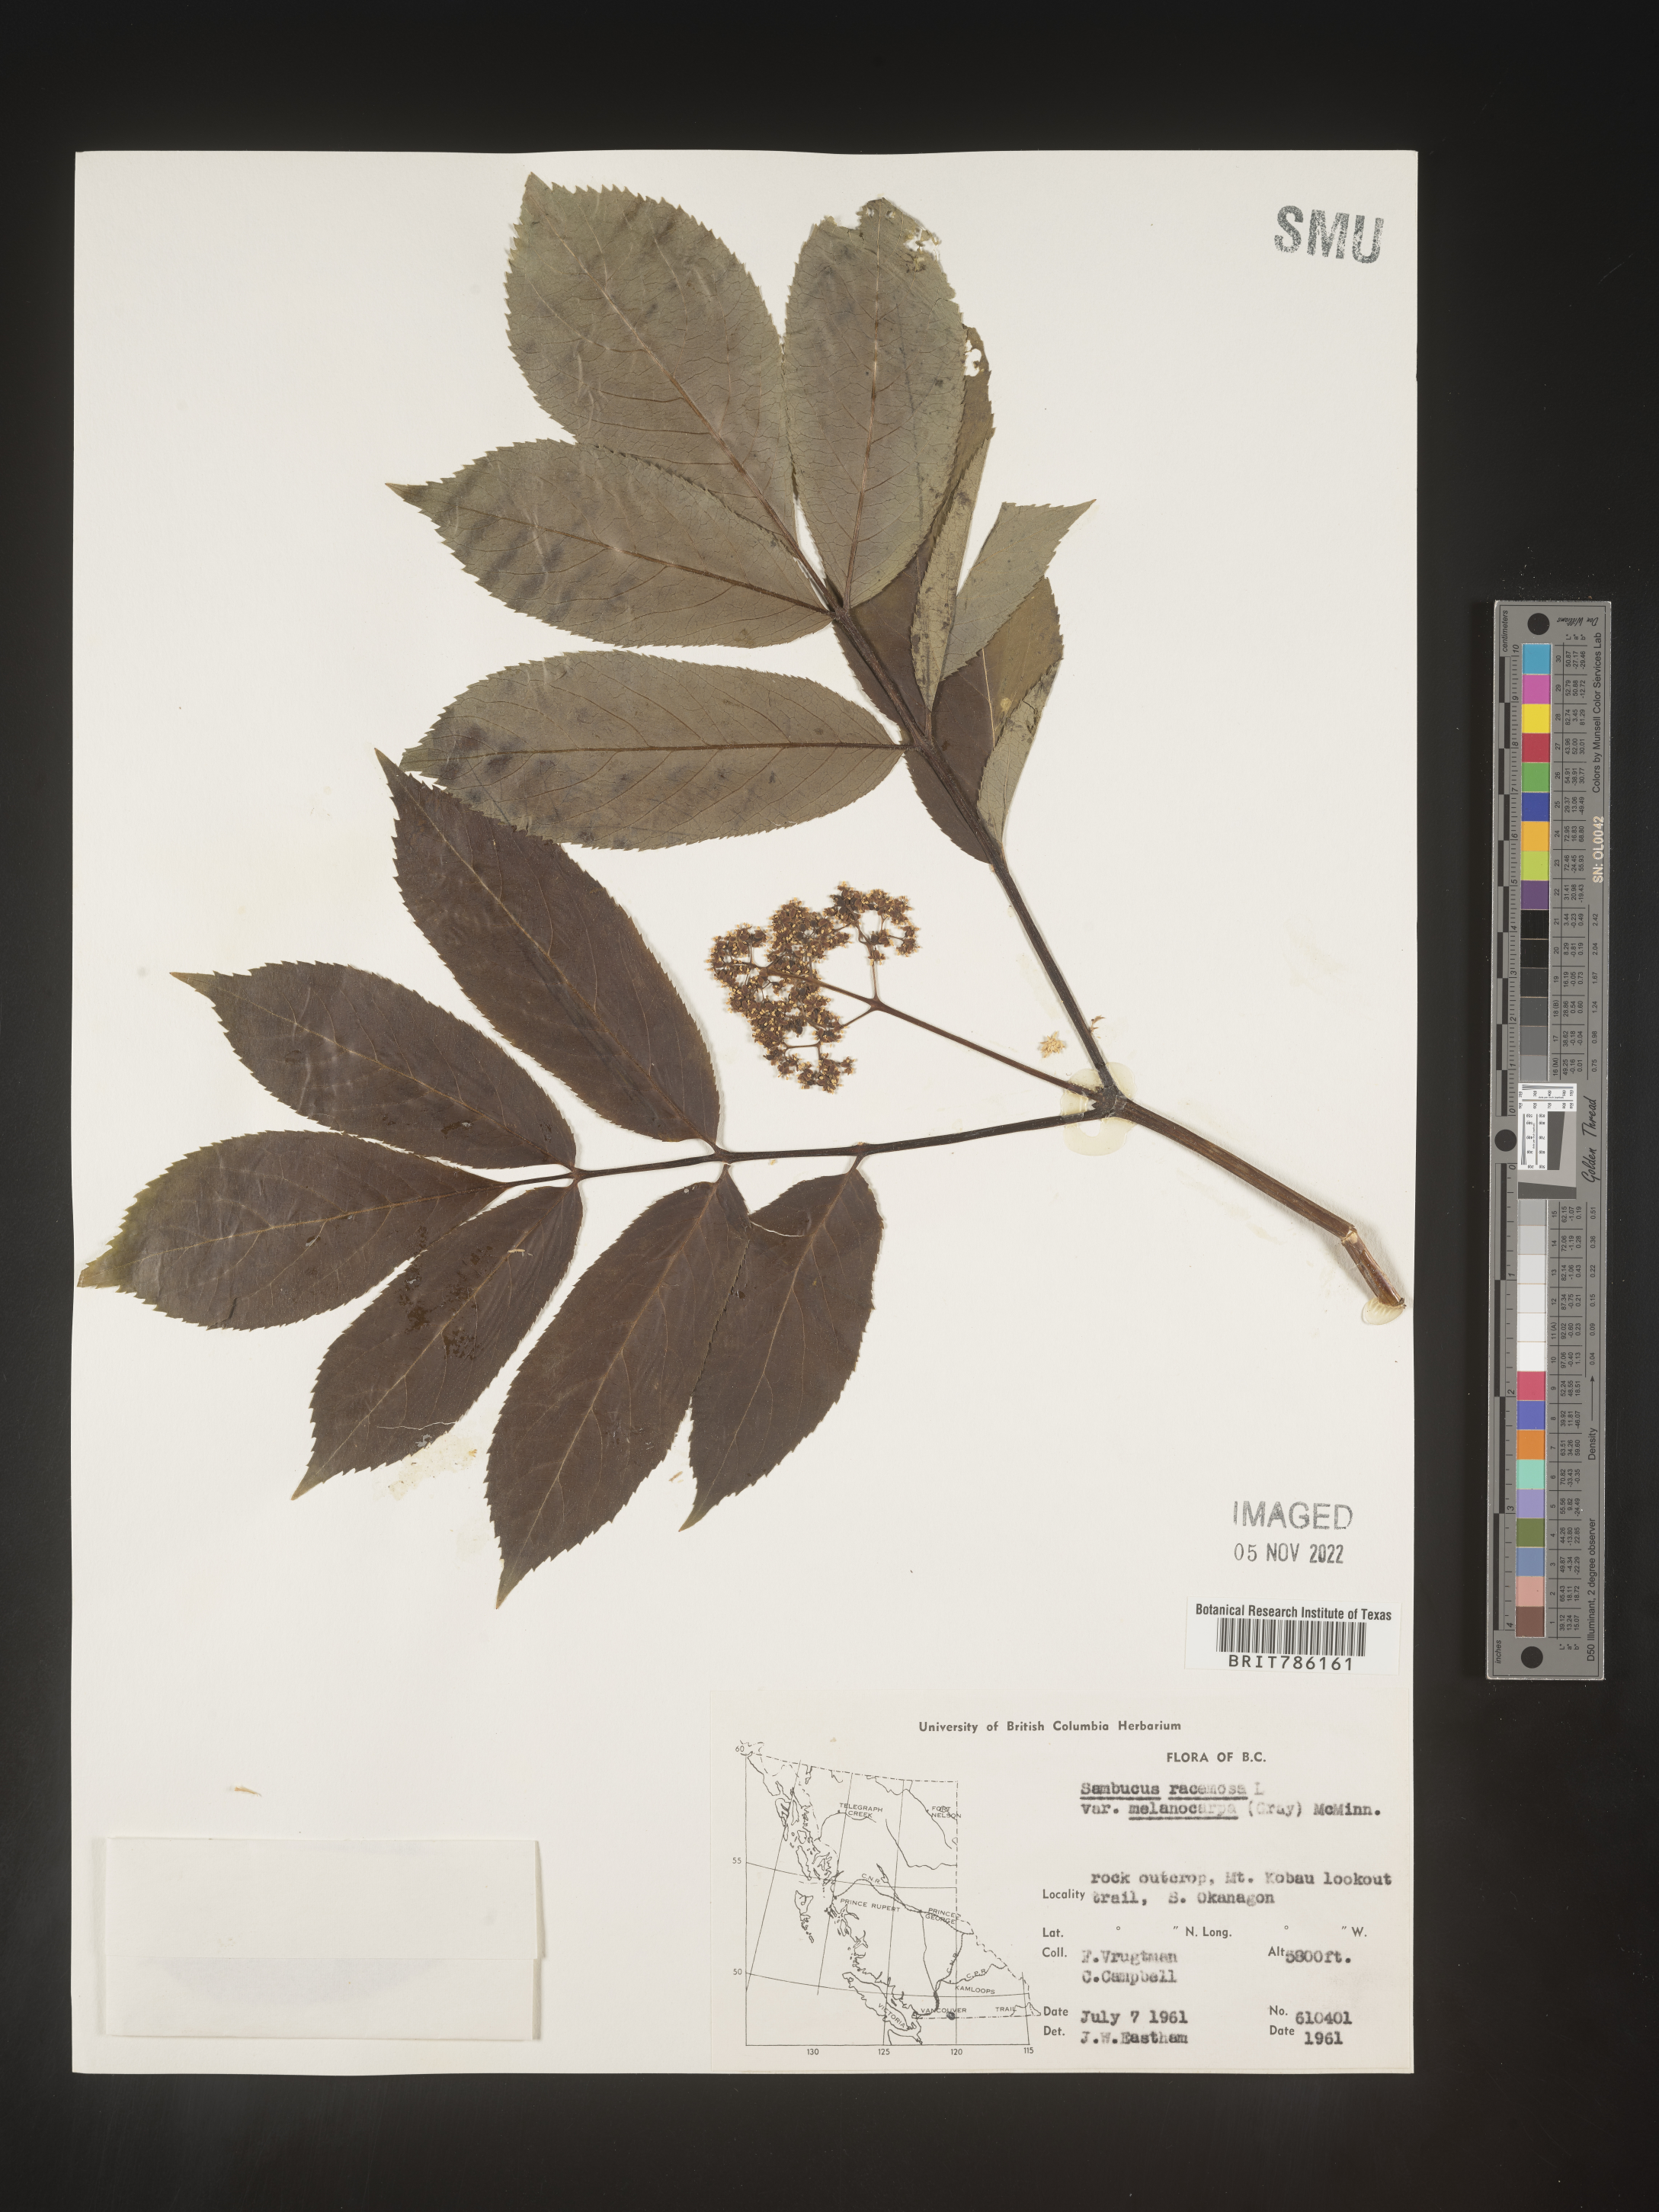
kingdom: Plantae
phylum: Tracheophyta
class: Magnoliopsida
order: Dipsacales
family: Viburnaceae
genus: Sambucus
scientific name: Sambucus
